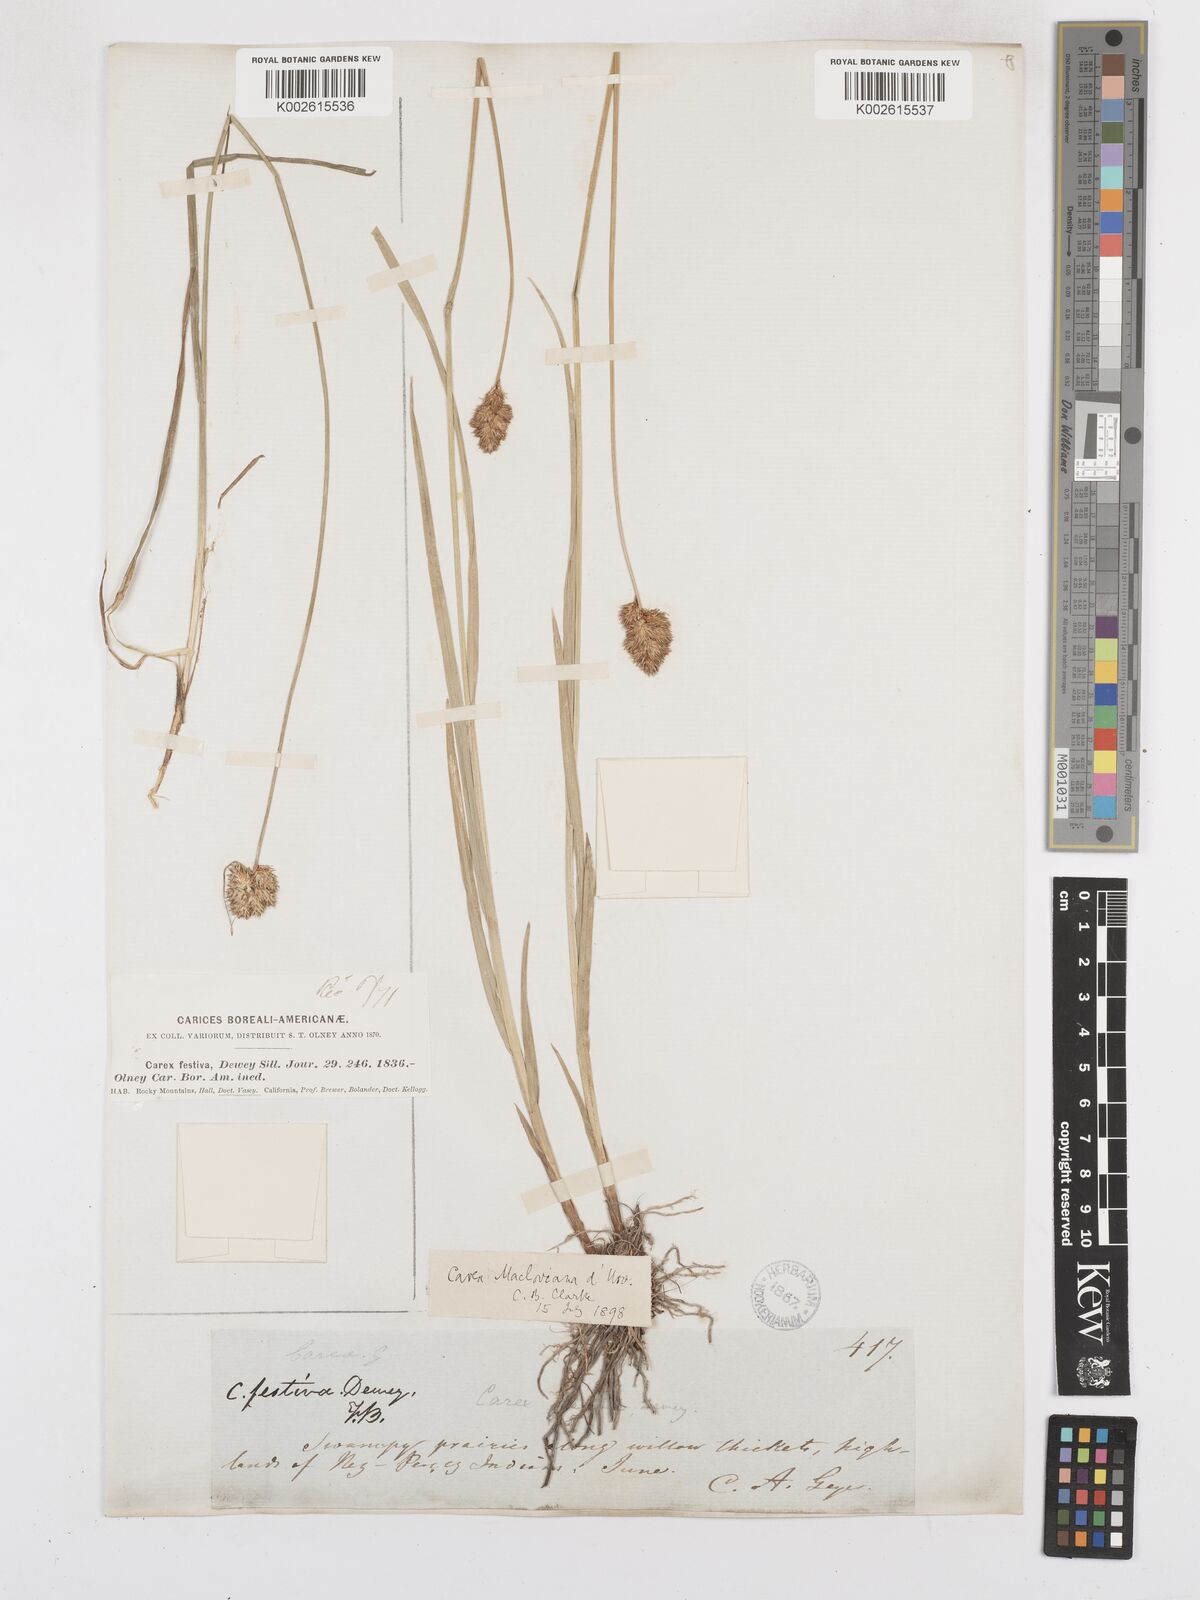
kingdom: Plantae
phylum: Tracheophyta
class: Liliopsida
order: Poales
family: Cyperaceae
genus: Carex
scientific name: Carex subfusca
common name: Brown sedge
